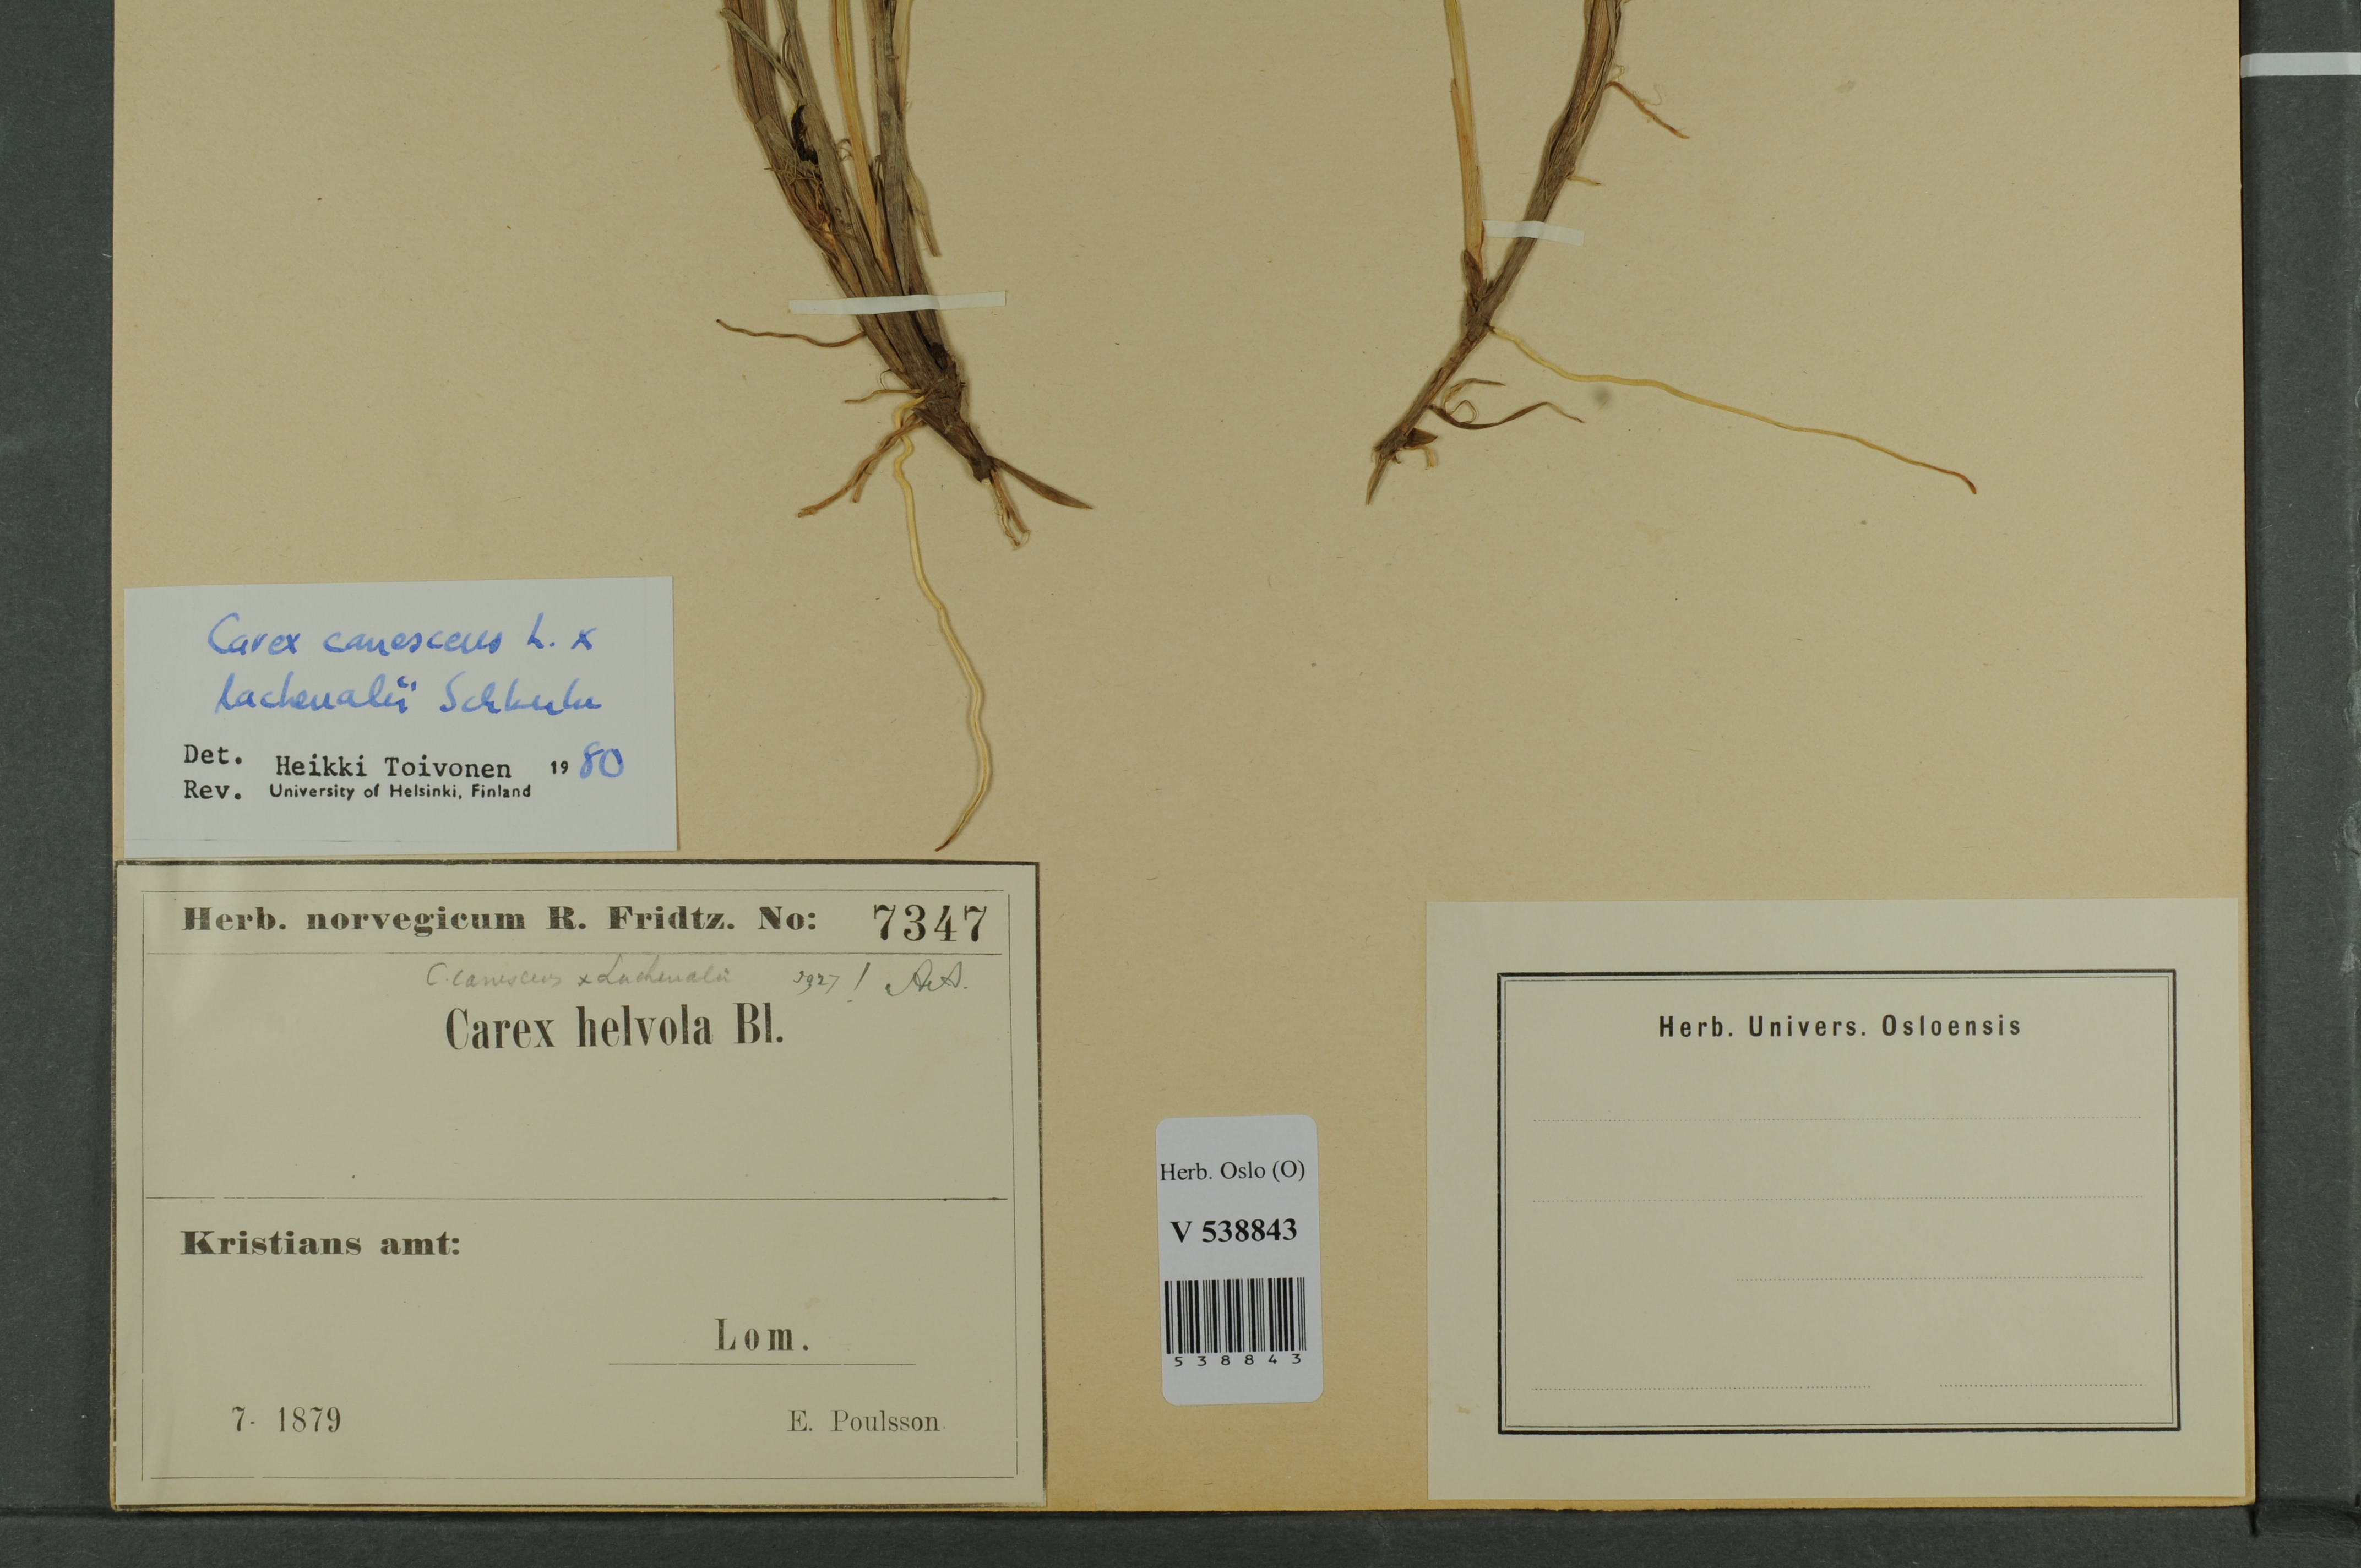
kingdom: Plantae
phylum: Tracheophyta
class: Liliopsida
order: Poales
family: Cyperaceae
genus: Carex
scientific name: Carex
